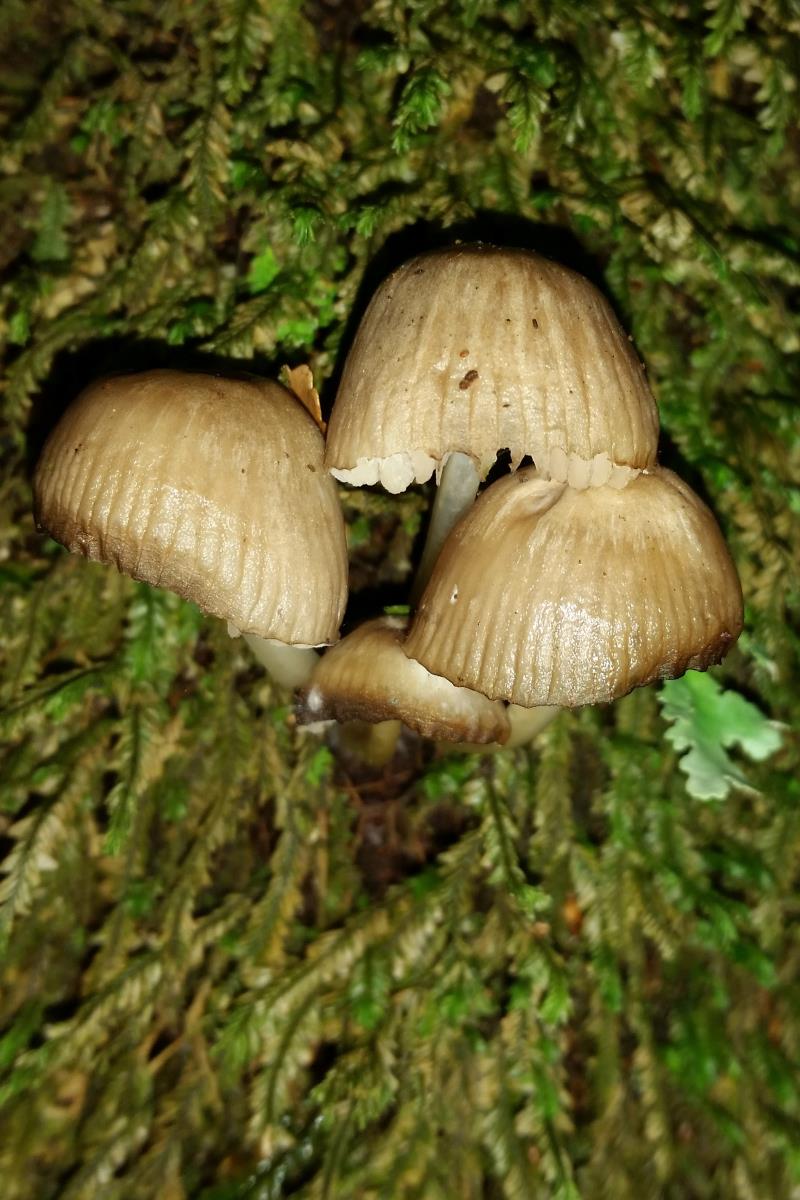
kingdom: Fungi
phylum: Basidiomycota
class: Agaricomycetes
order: Agaricales
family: Mycenaceae
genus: Mycena
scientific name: Mycena
